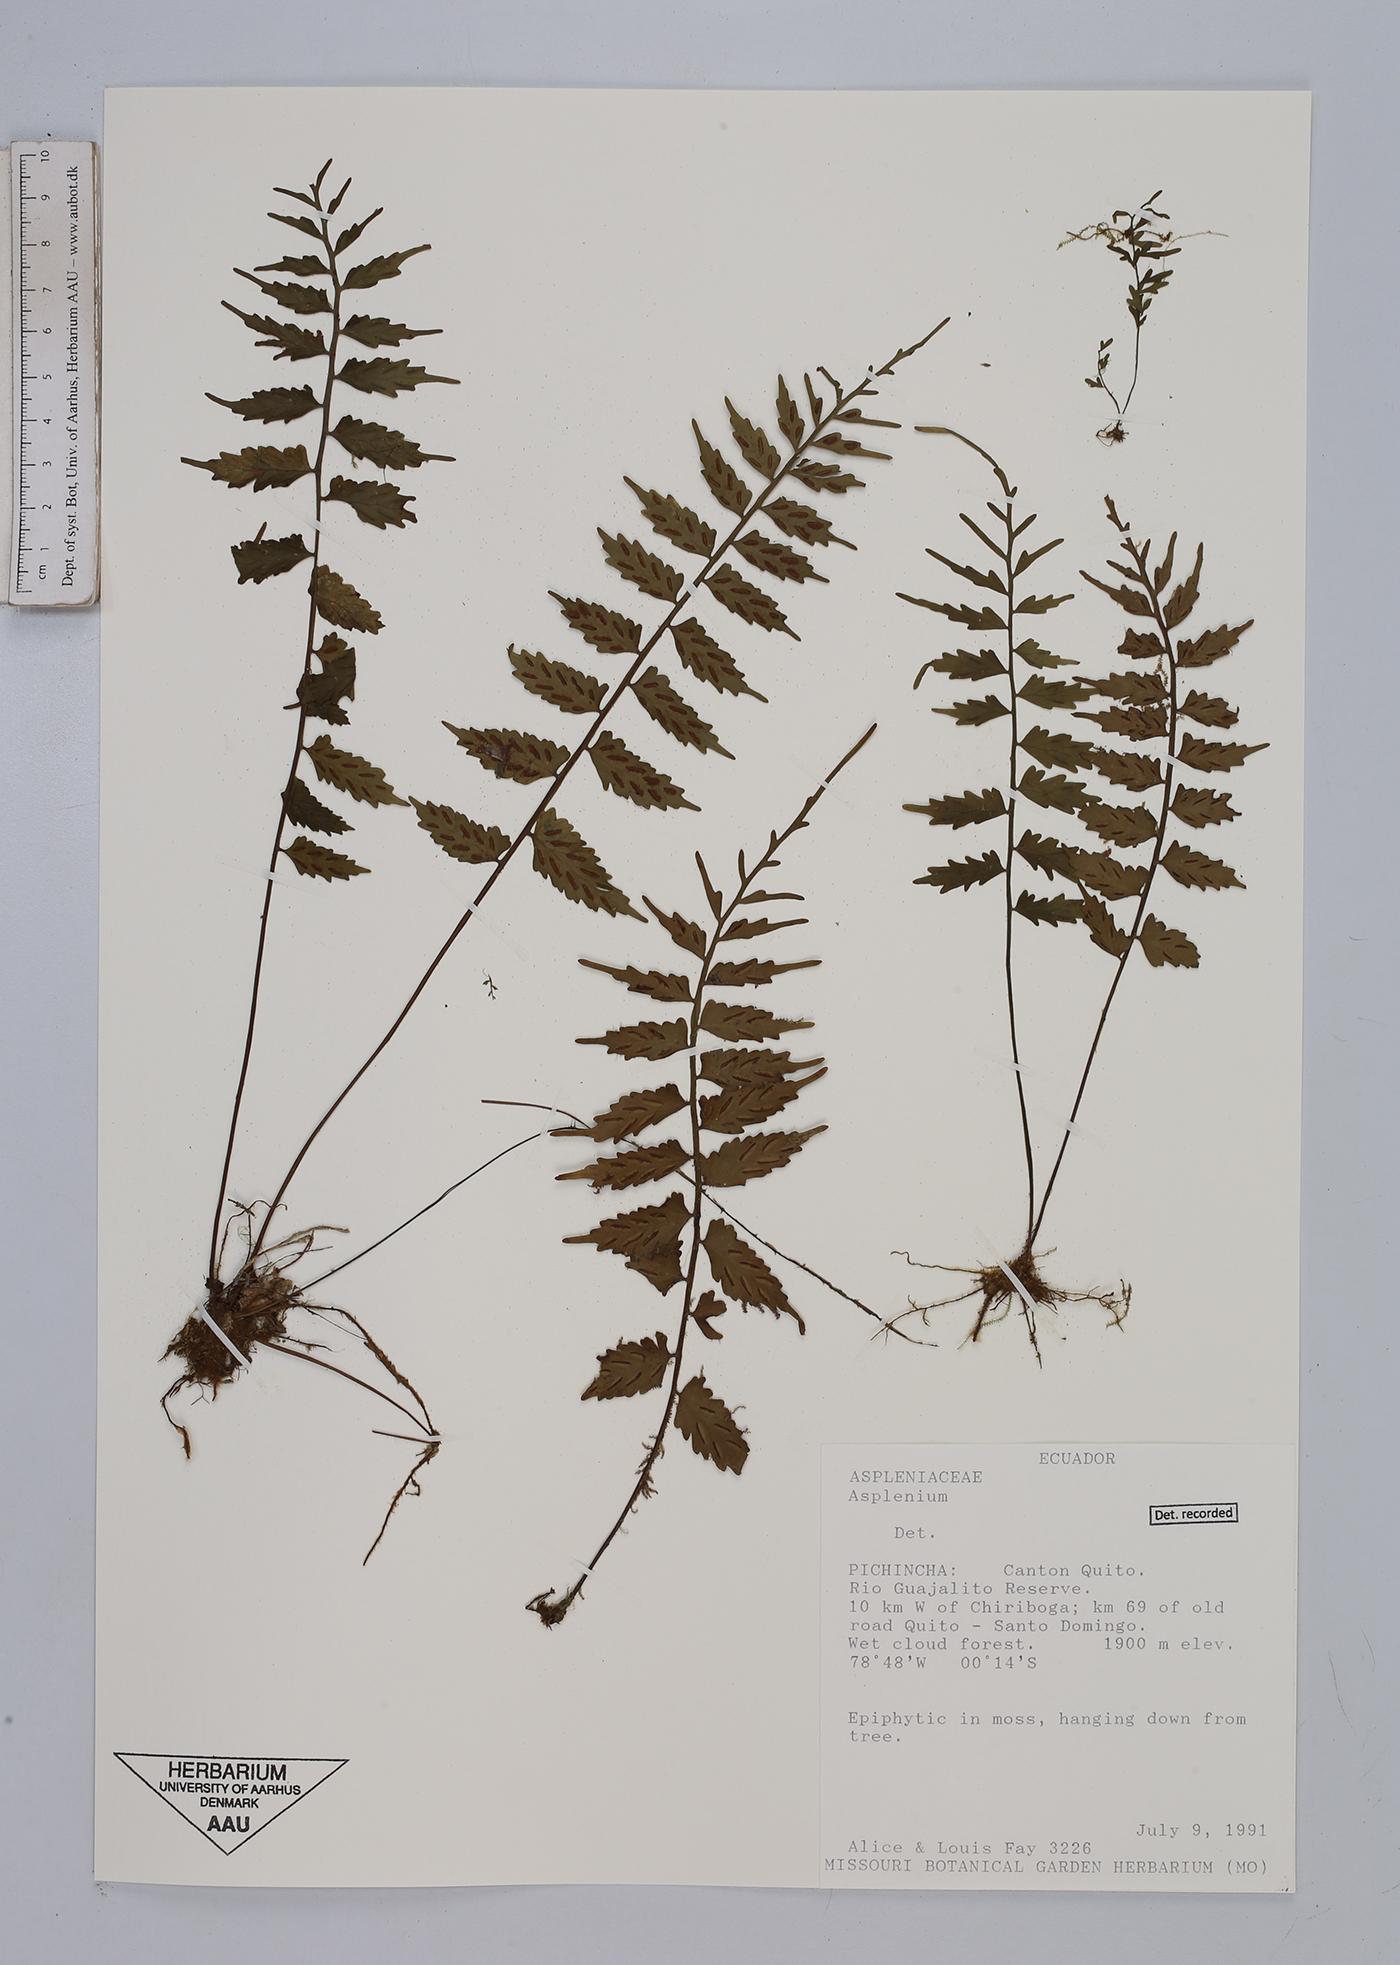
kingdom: Plantae
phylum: Tracheophyta
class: Polypodiopsida
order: Polypodiales
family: Aspleniaceae
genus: Asplenium
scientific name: Asplenium
